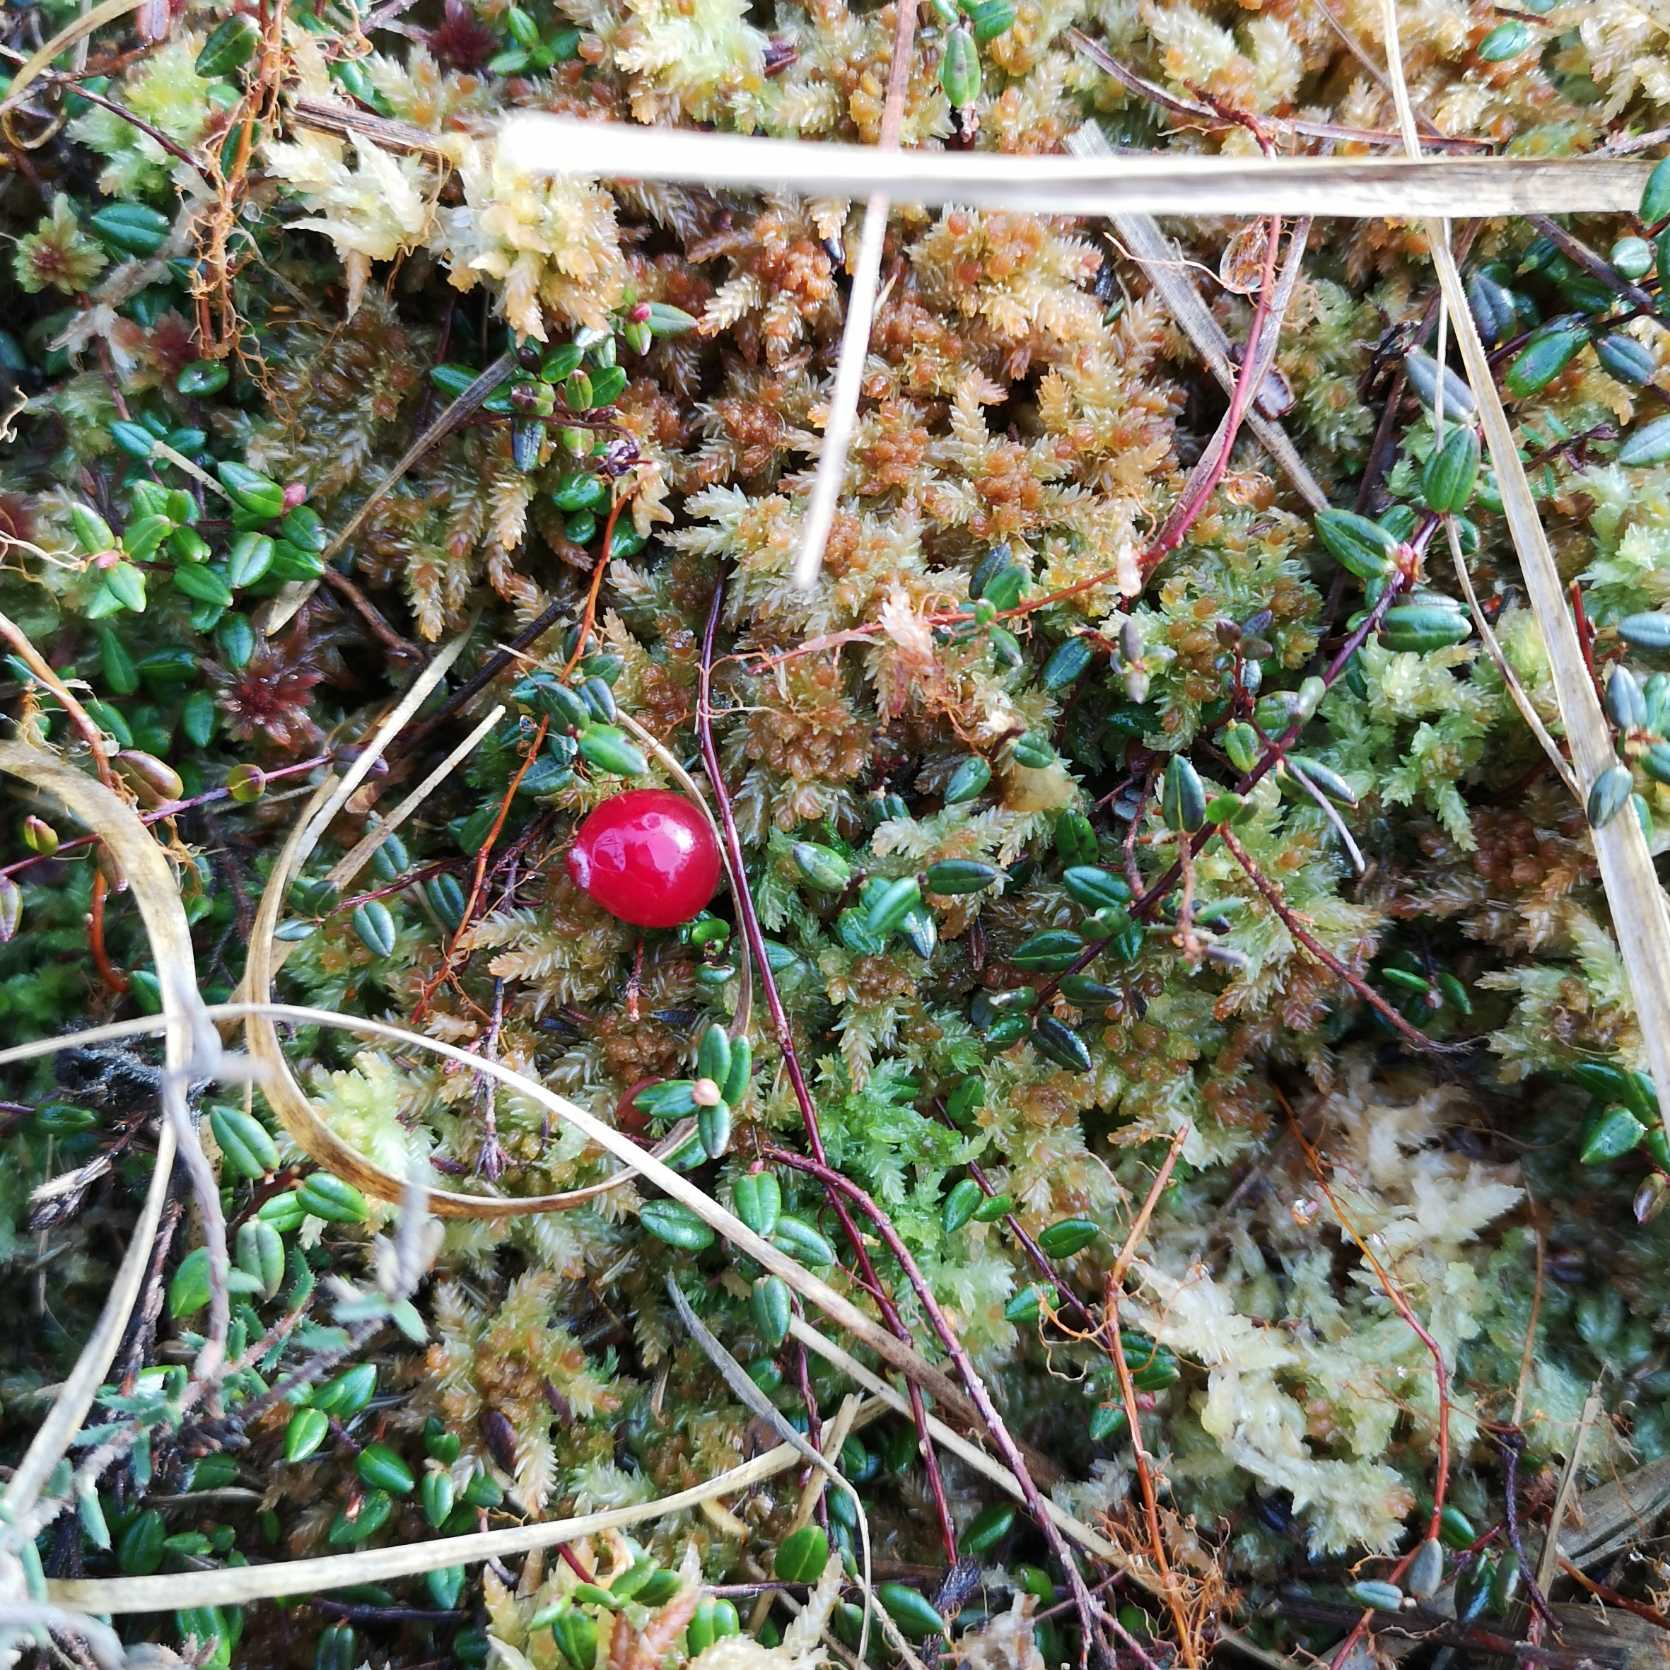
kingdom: Plantae
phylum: Tracheophyta
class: Magnoliopsida
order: Ericales
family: Ericaceae
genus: Vaccinium
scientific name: Vaccinium oxycoccos
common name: Tranebær
